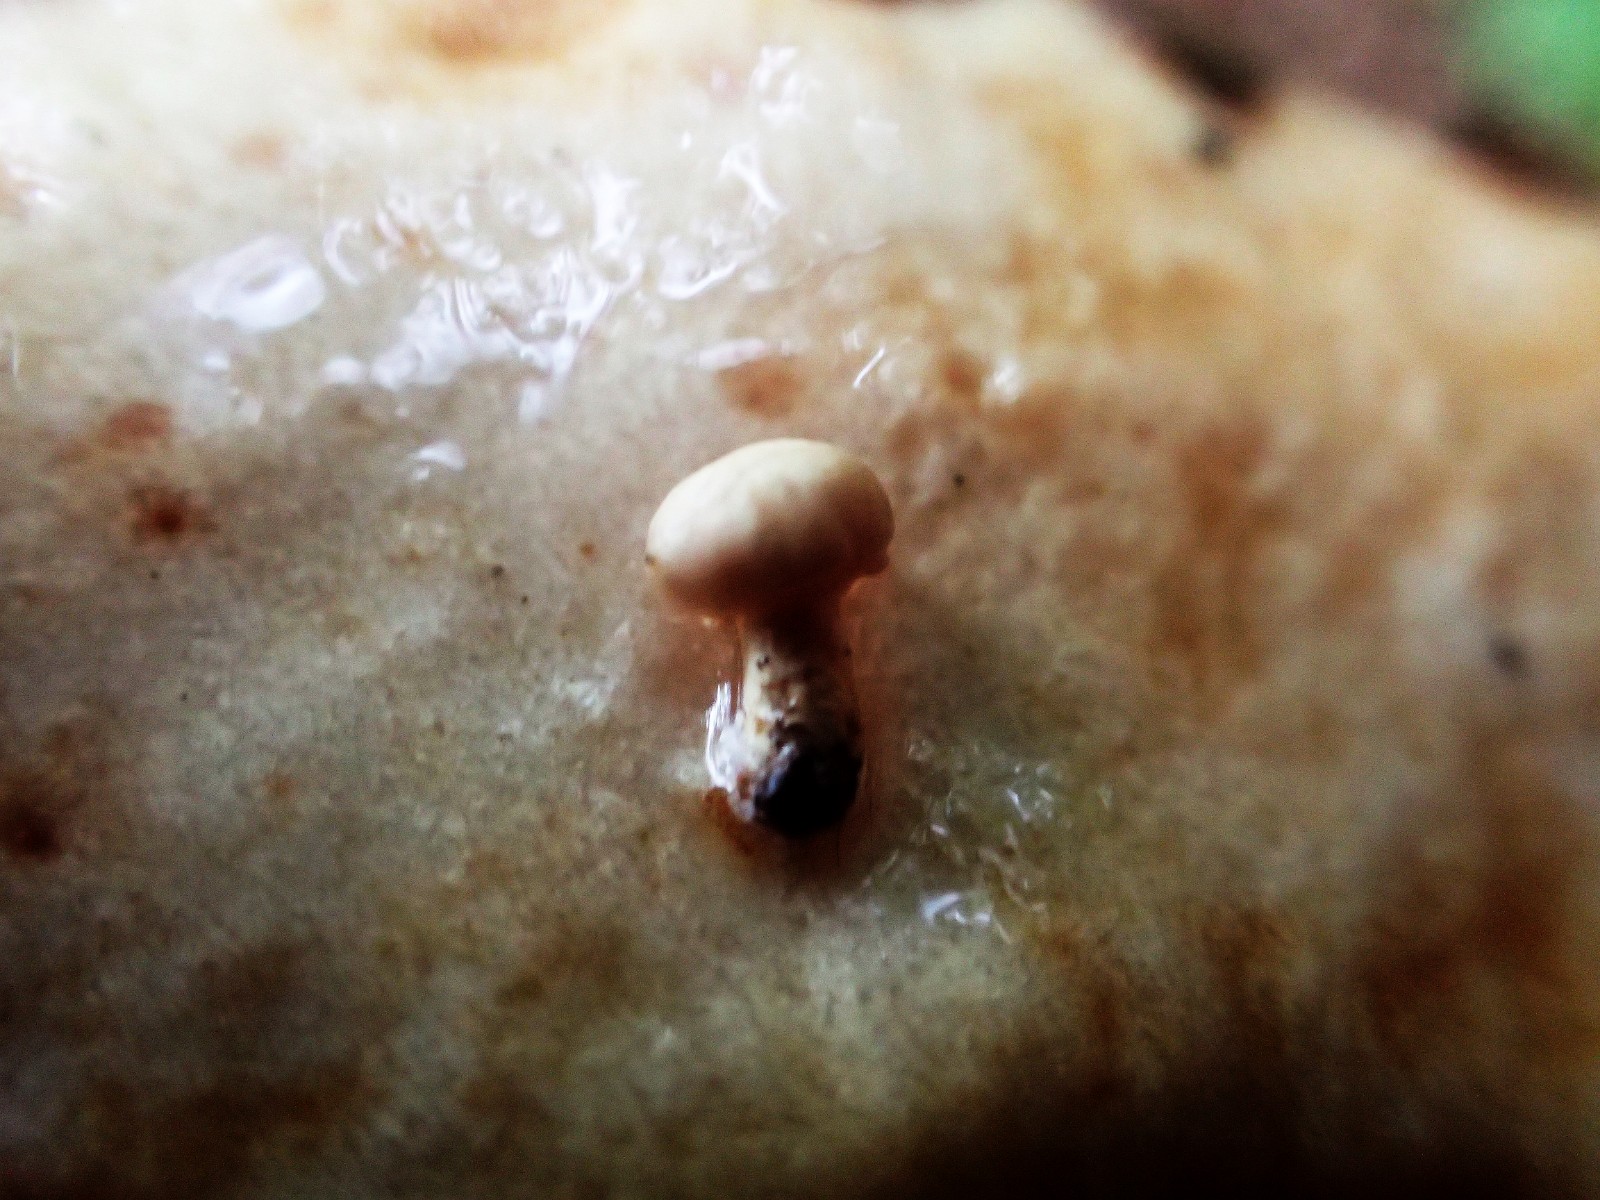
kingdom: Fungi
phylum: Basidiomycota
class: Agaricomycetes
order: Russulales
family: Russulaceae
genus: Lactarius
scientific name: Lactarius pallidus
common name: bleg mælkehat
